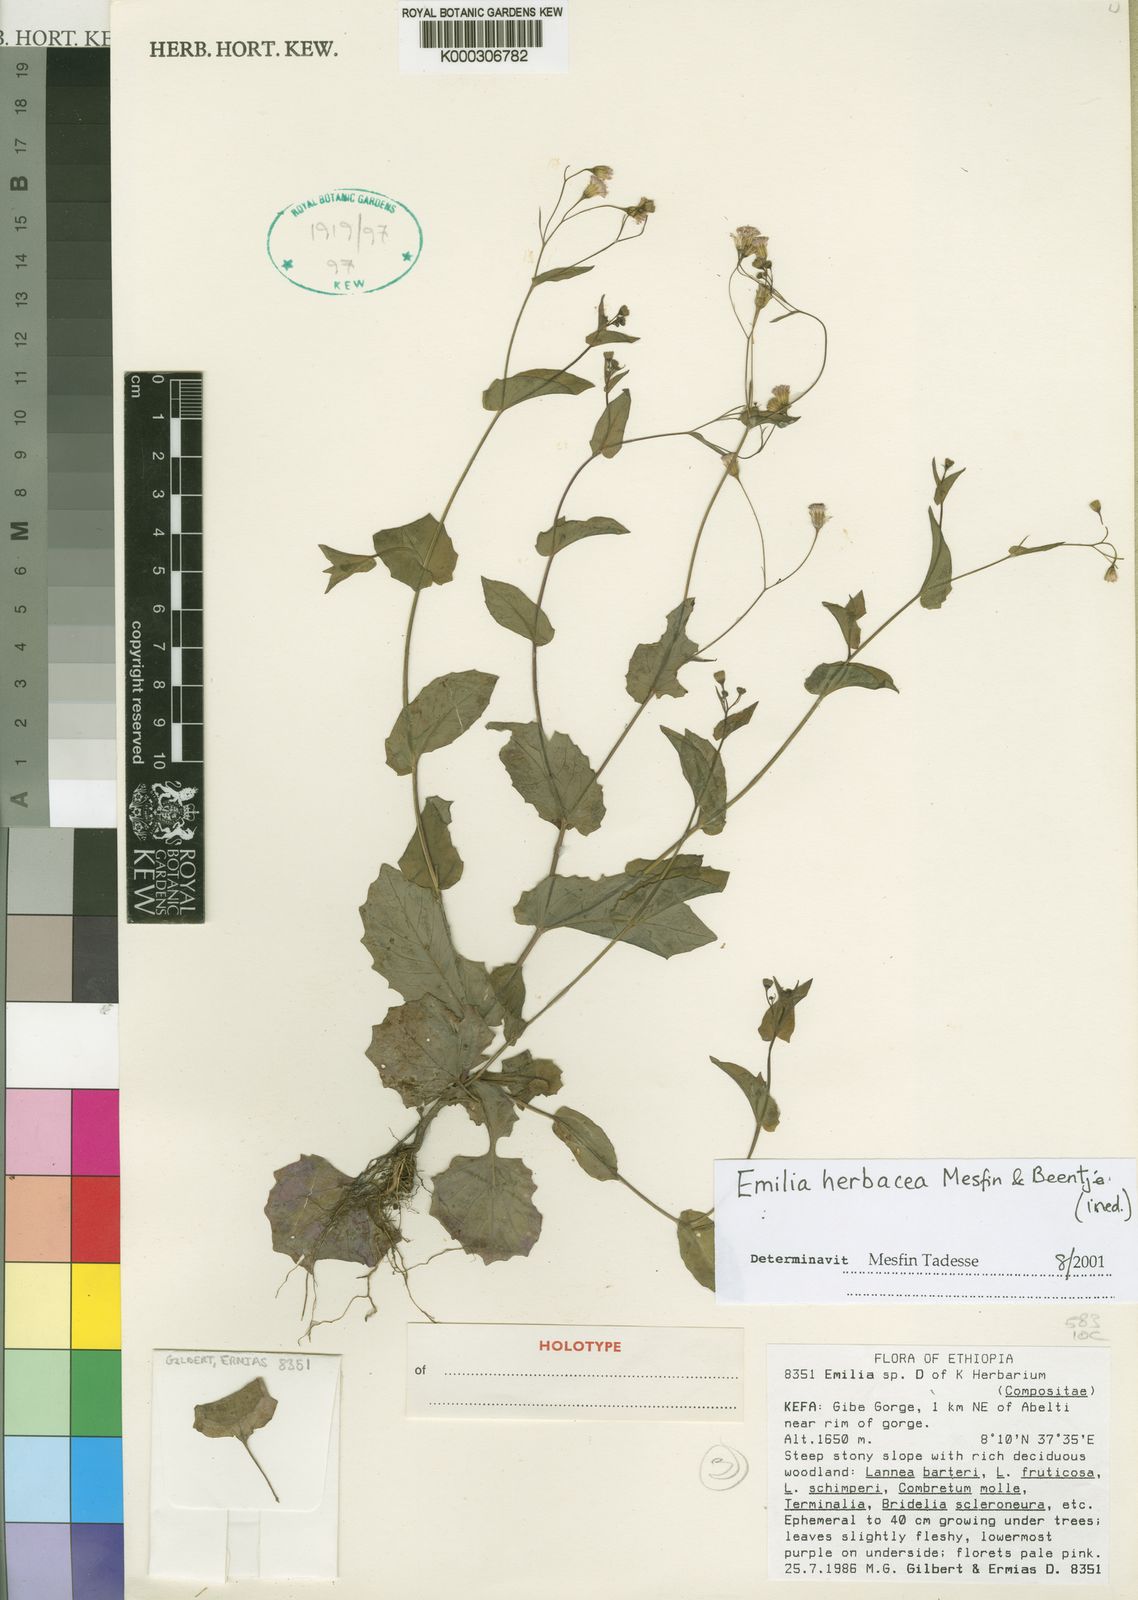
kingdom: Plantae
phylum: Tracheophyta
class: Magnoliopsida
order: Asterales
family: Asteraceae
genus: Emilia
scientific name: Emilia herbacea
